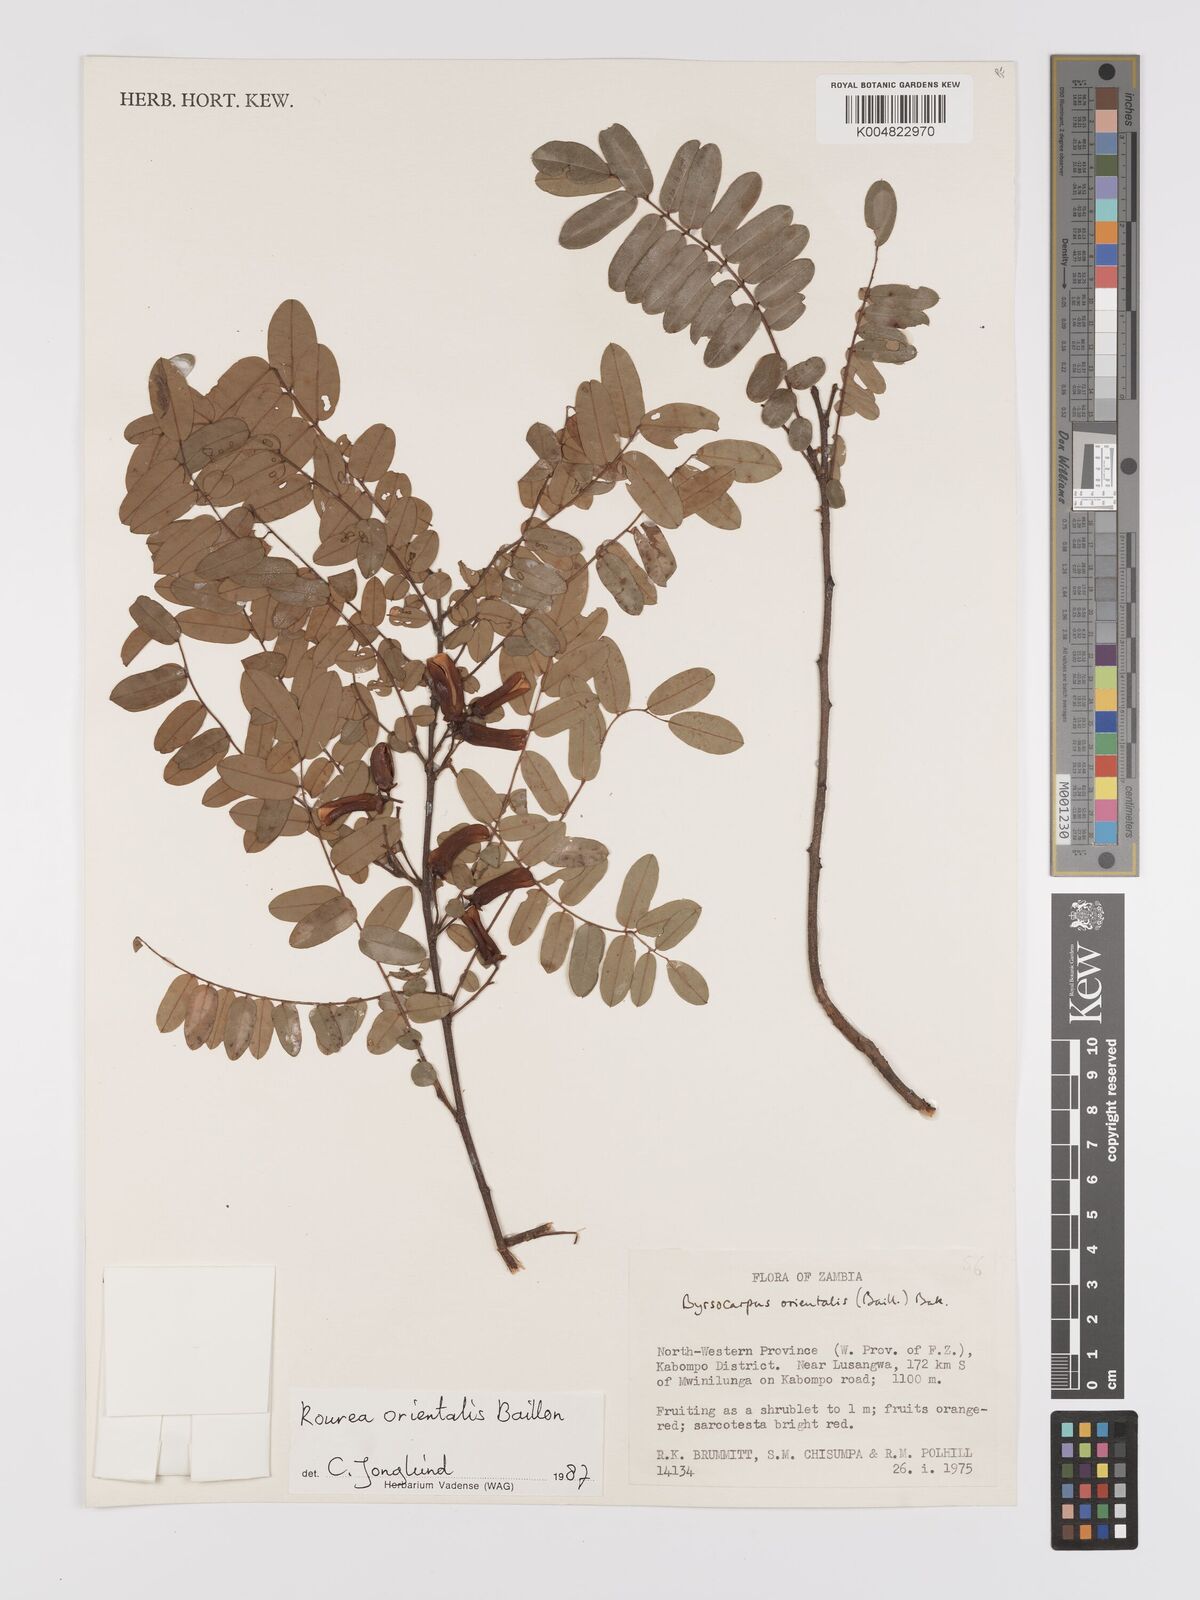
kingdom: Plantae
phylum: Tracheophyta
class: Magnoliopsida
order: Oxalidales
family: Connaraceae
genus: Rourea
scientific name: Rourea orientalis
